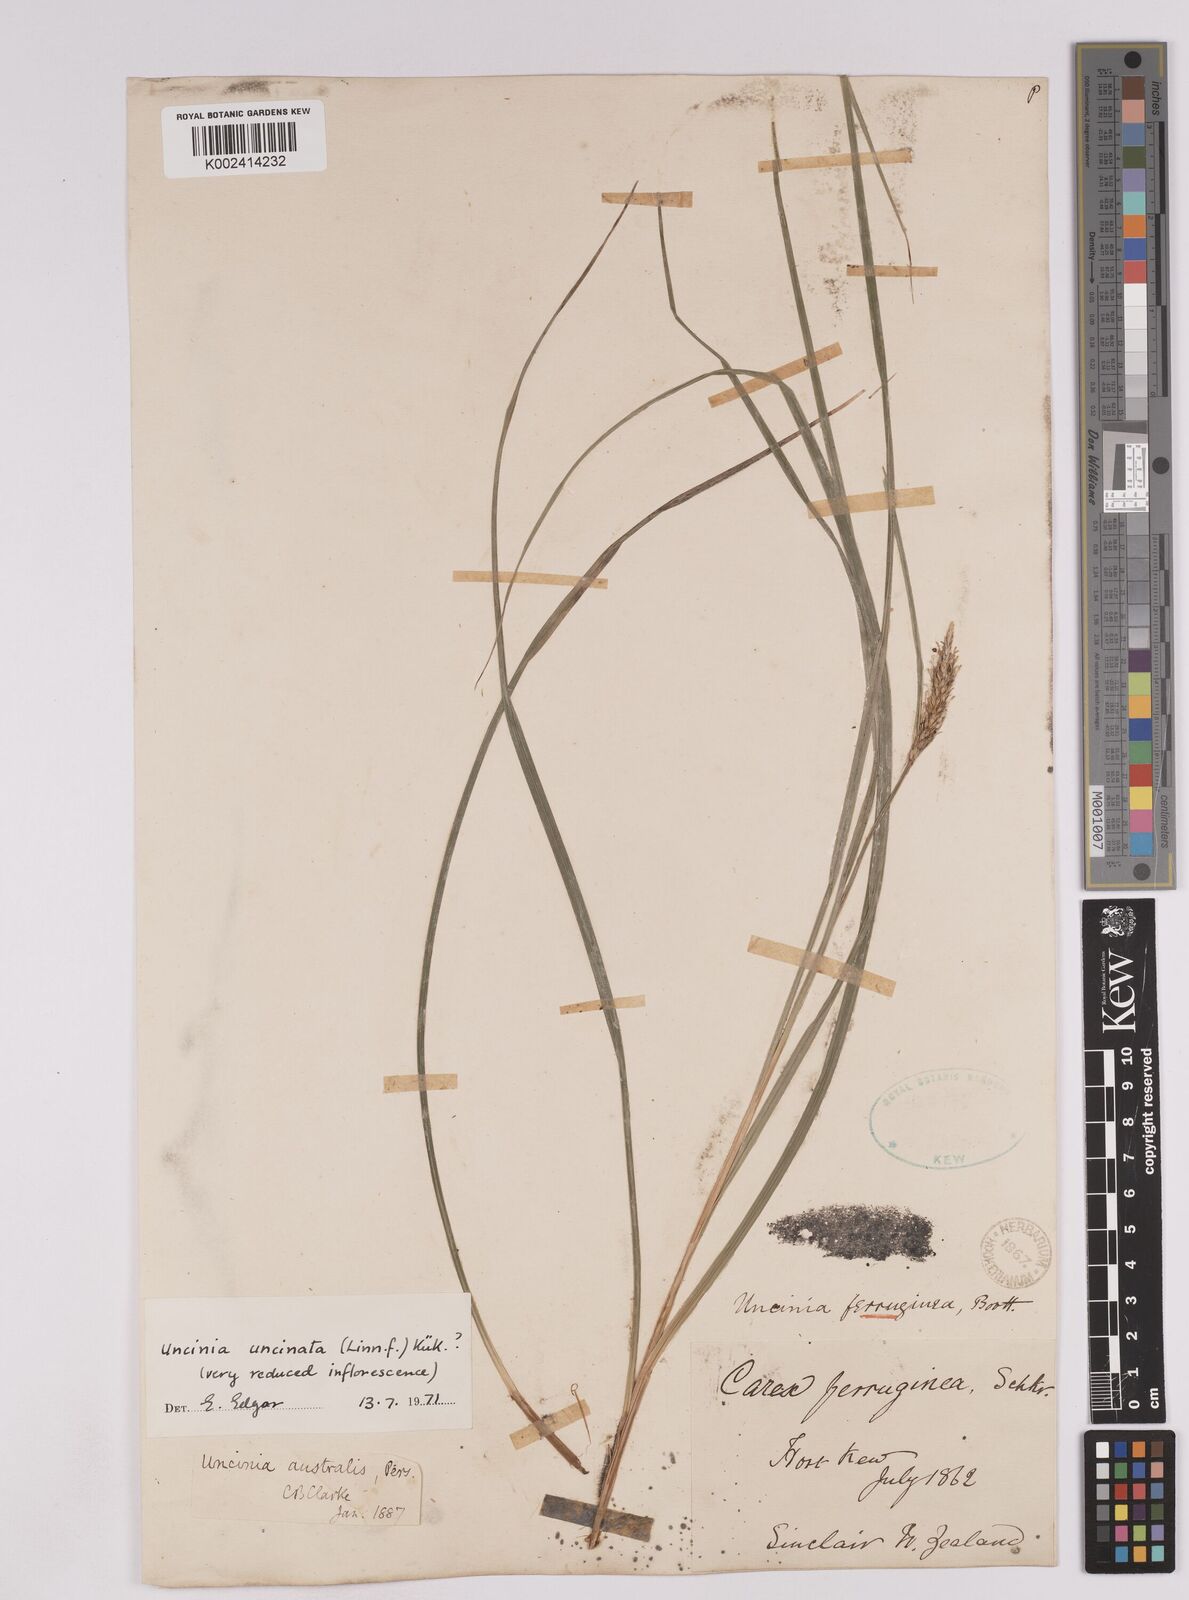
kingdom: Plantae
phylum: Tracheophyta
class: Liliopsida
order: Poales
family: Cyperaceae
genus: Carex
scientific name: Carex uncinata
